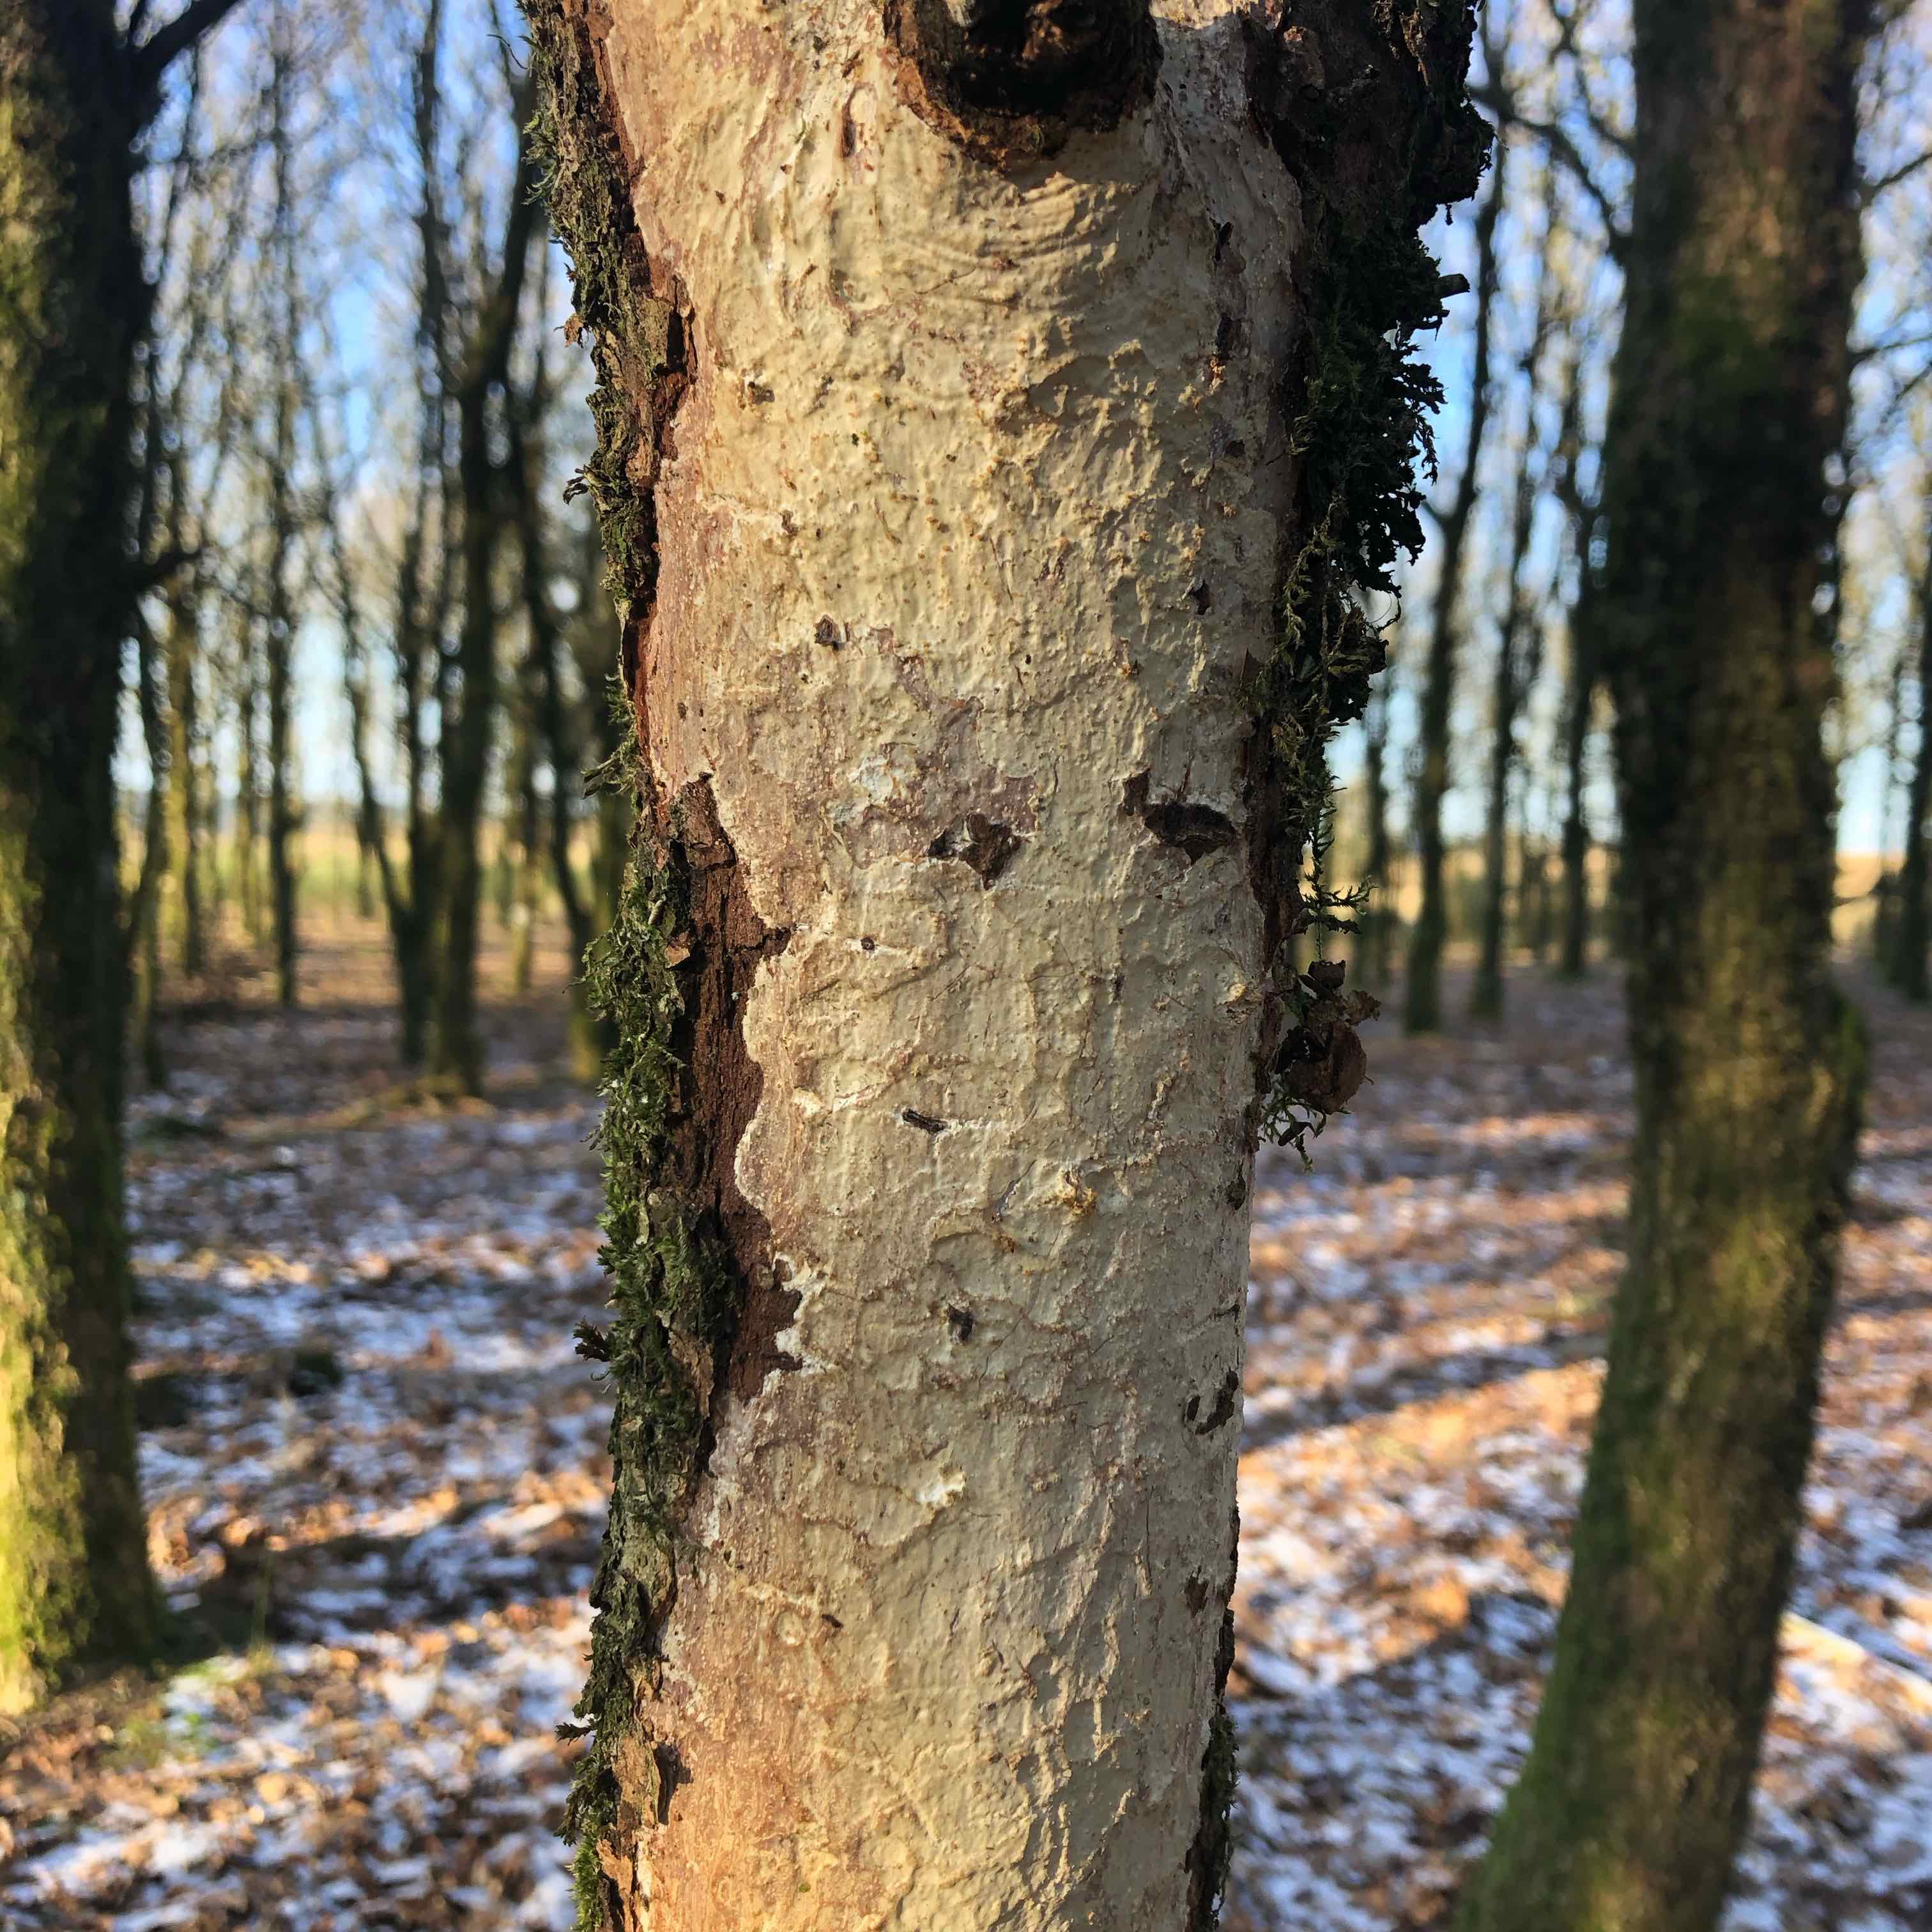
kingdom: Fungi
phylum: Basidiomycota
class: Agaricomycetes
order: Corticiales
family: Vuilleminiaceae
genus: Vuilleminia
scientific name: Vuilleminia comedens
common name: almindelig barksprænger
